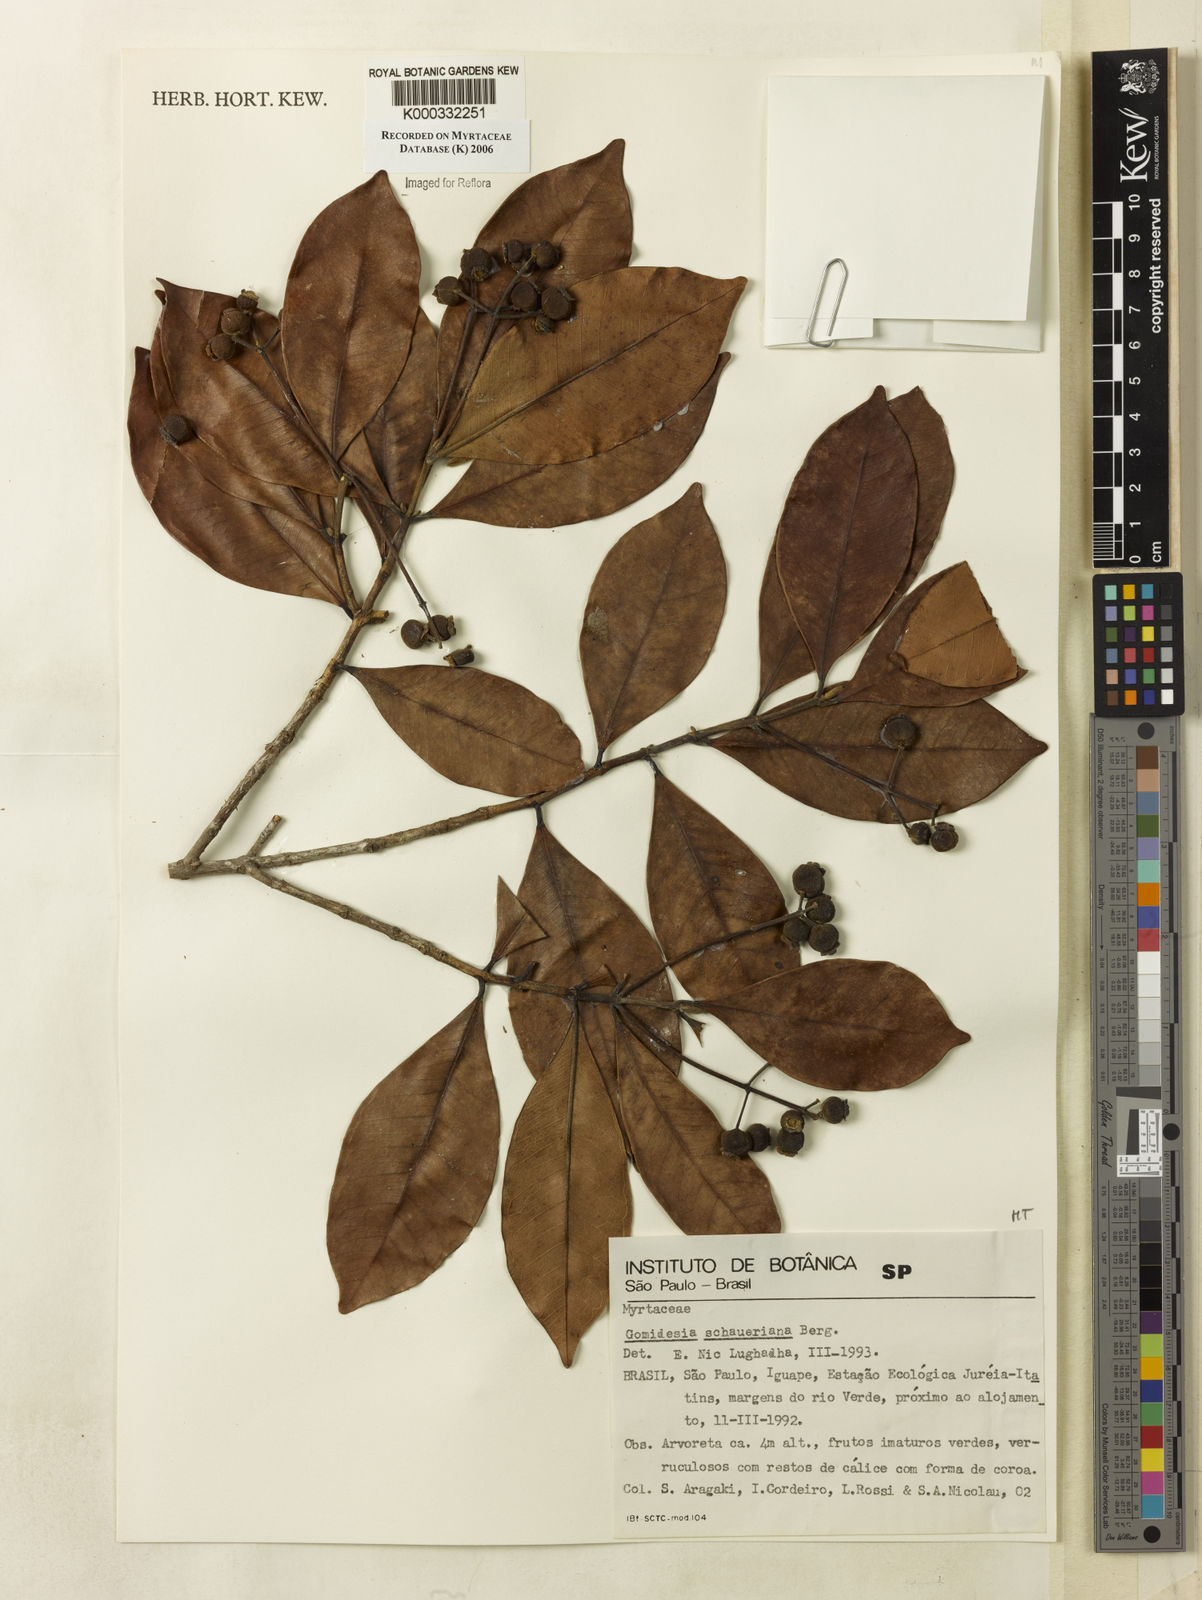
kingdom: Plantae
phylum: Tracheophyta
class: Magnoliopsida
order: Myrtales
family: Myrtaceae
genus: Myrcia
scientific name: Myrcia freyreissiana
